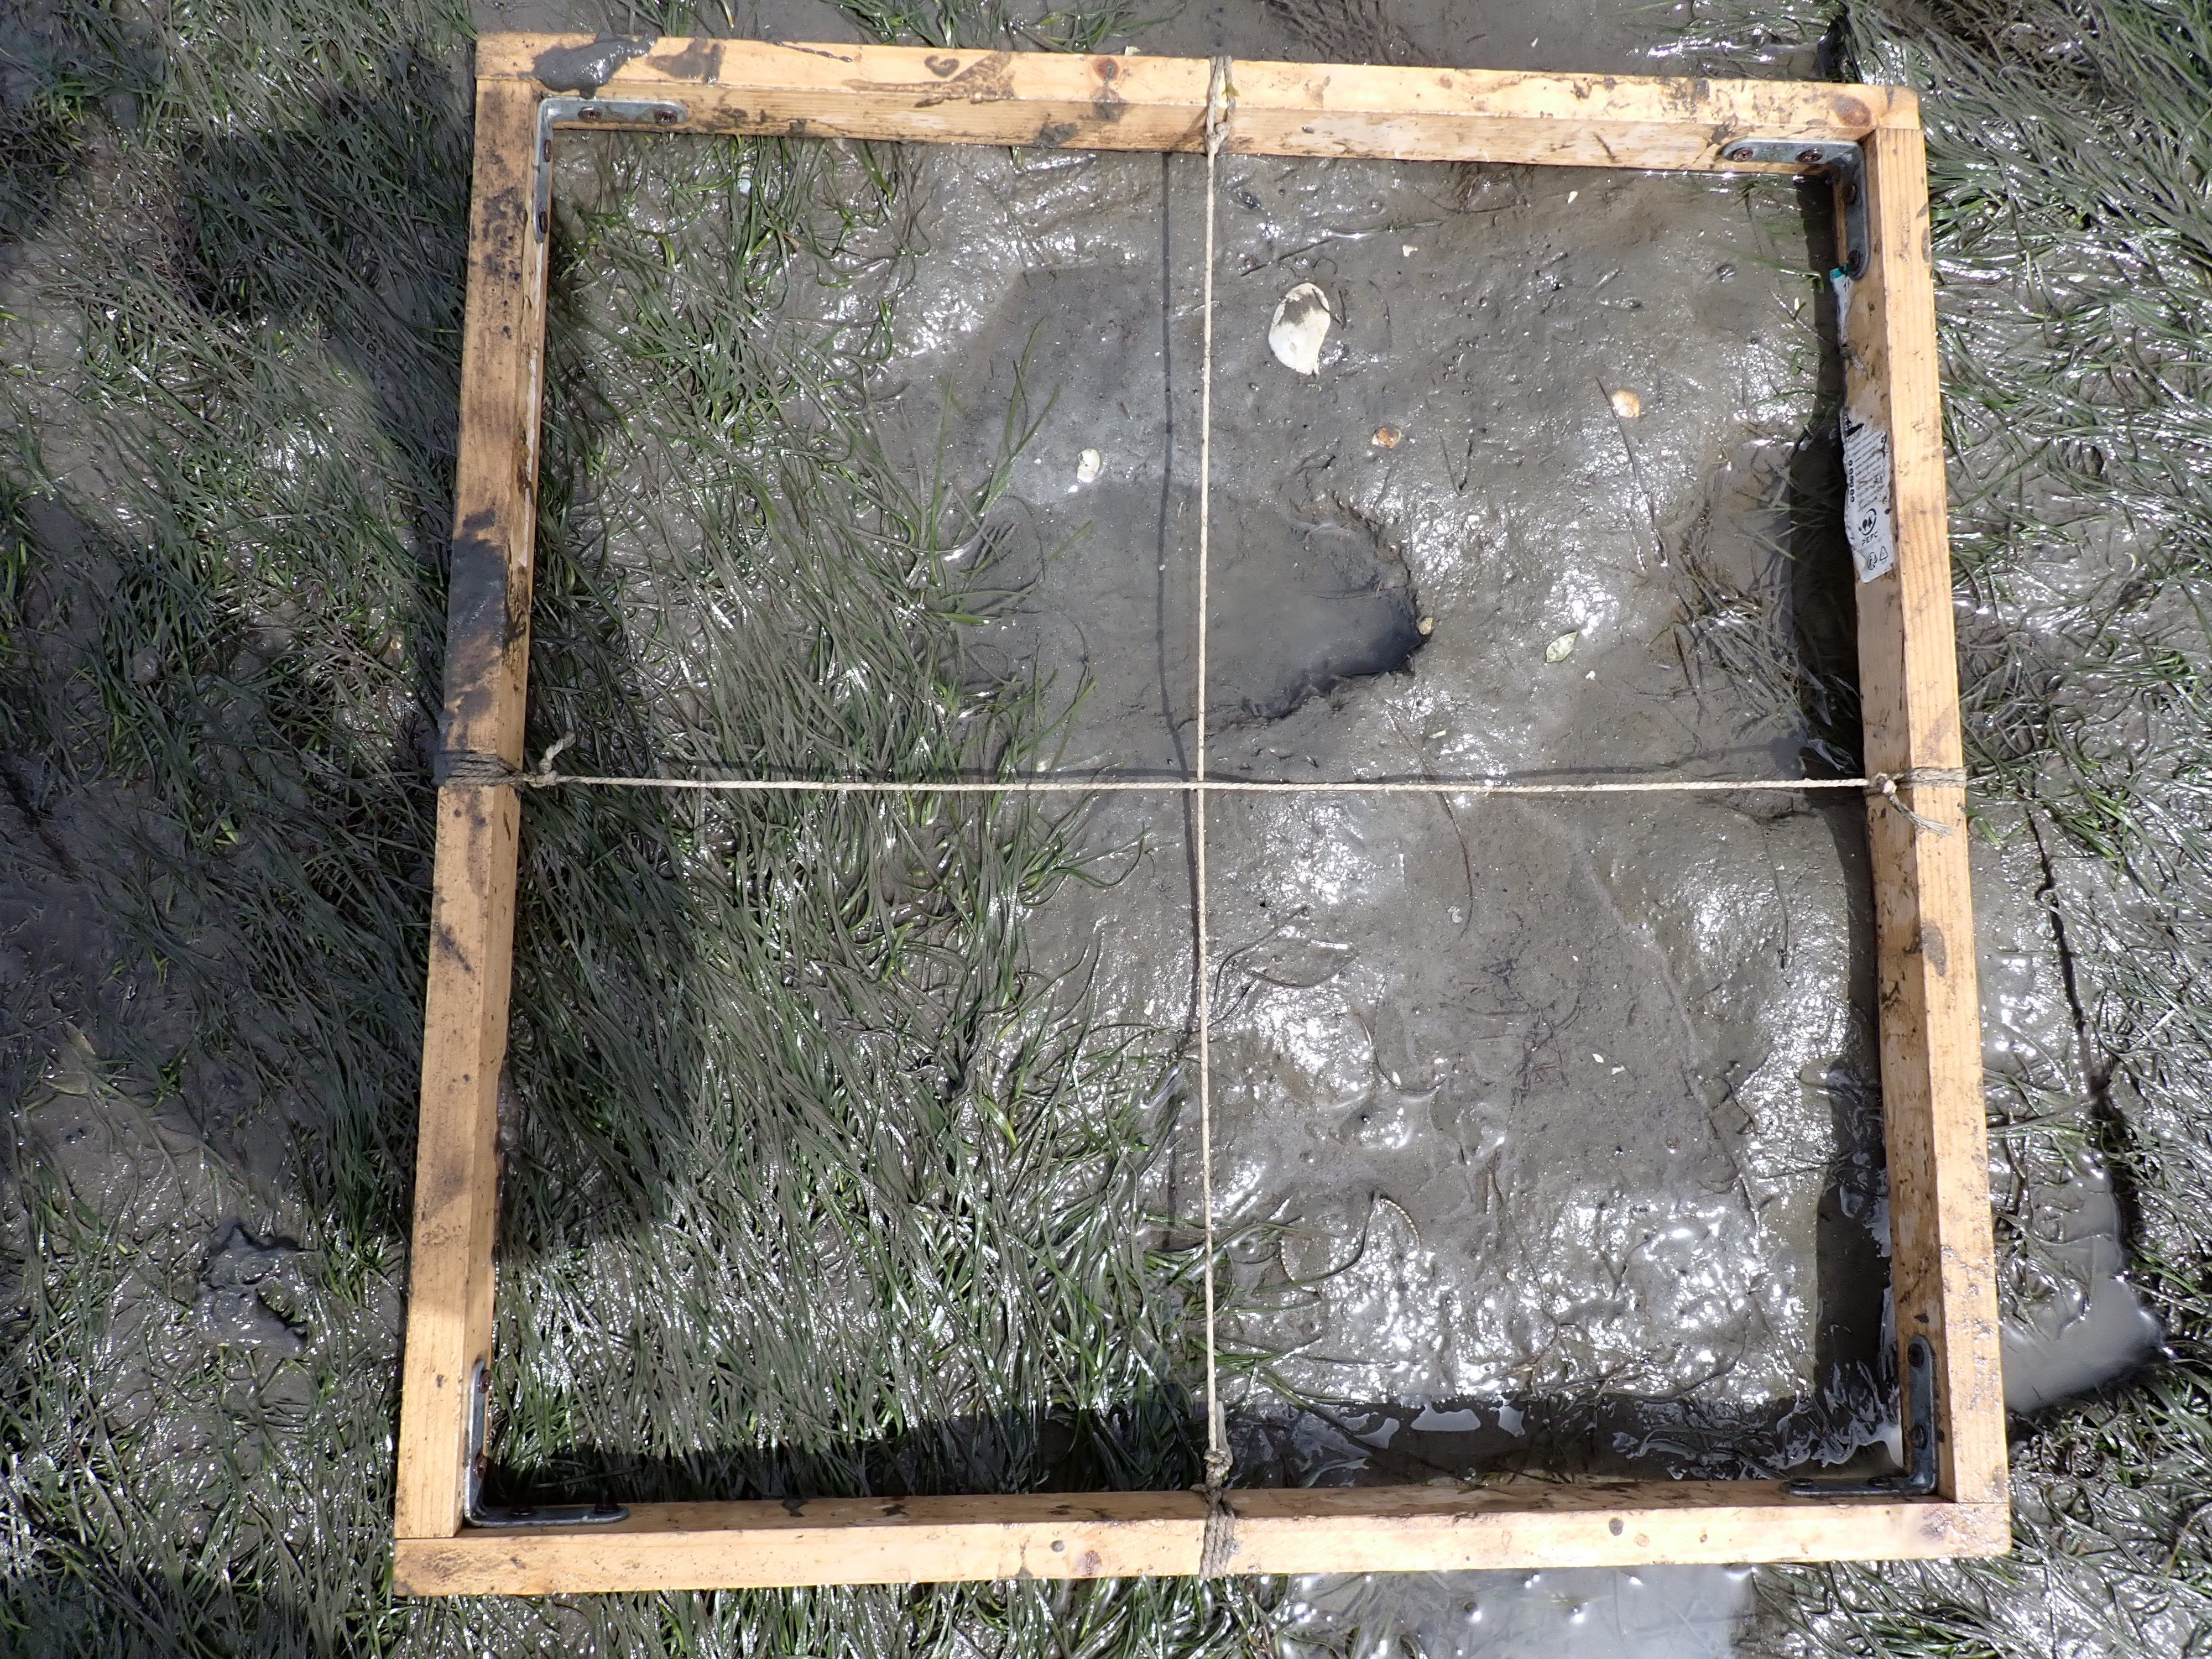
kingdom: Plantae
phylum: Tracheophyta
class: Liliopsida
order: Alismatales
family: Zosteraceae
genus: Zostera
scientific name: Zostera noltii
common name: Dwarf eelgrass
